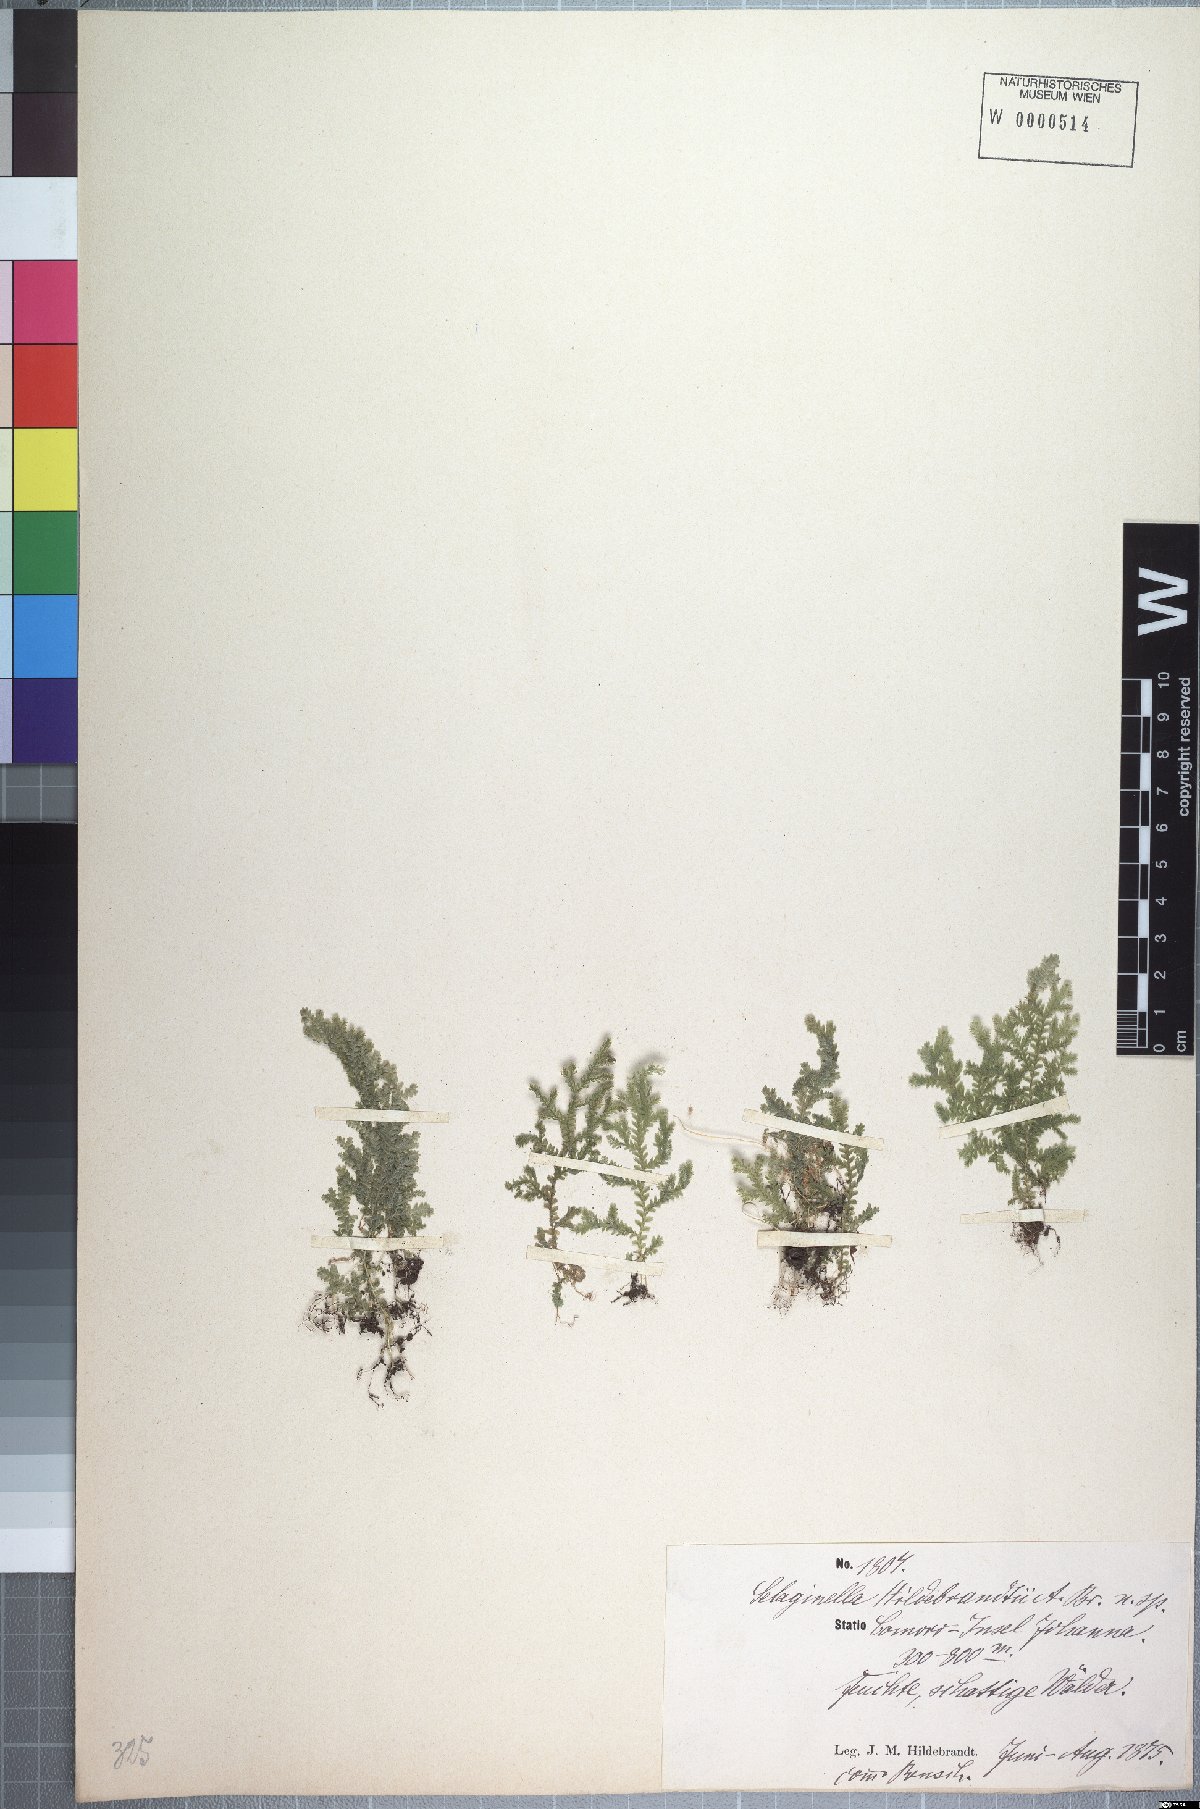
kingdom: Plantae
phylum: Tracheophyta
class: Lycopodiopsida
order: Selaginellales
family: Selaginellaceae
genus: Selaginella
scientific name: Selaginella hildebrandtii
